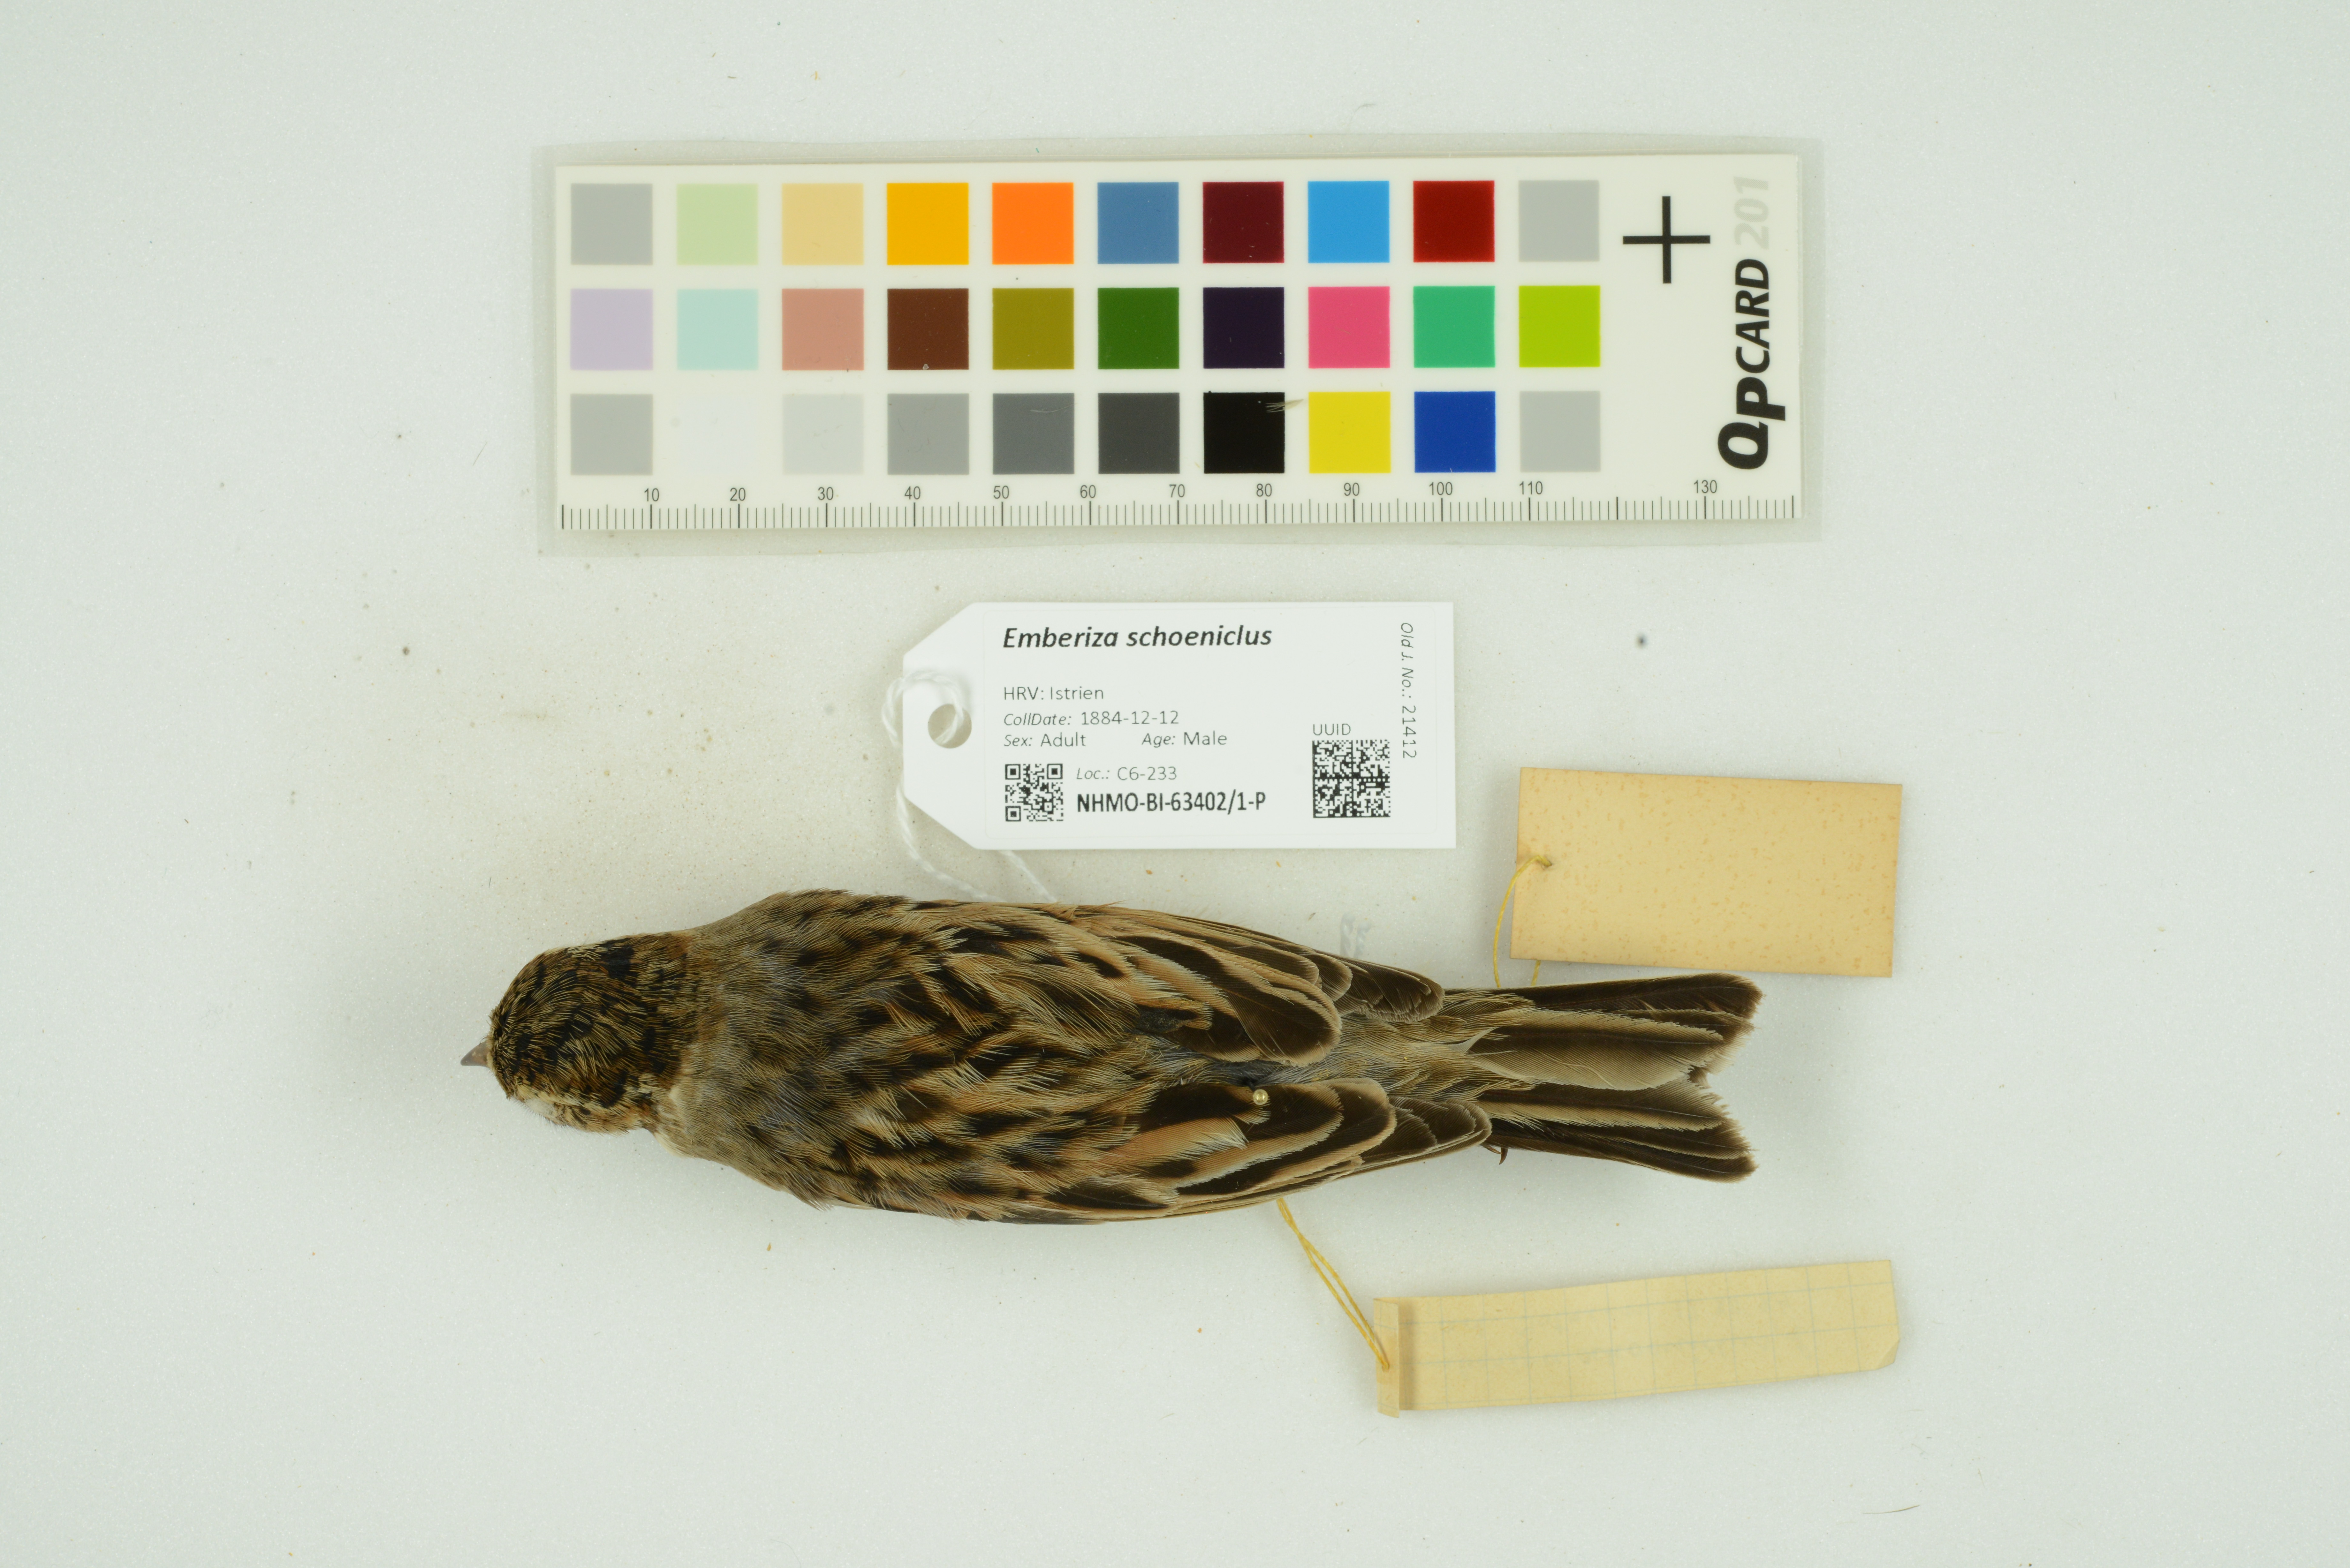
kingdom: Animalia
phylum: Chordata
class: Aves
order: Passeriformes
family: Emberizidae
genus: Emberiza
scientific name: Emberiza schoeniclus
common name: Reed bunting
